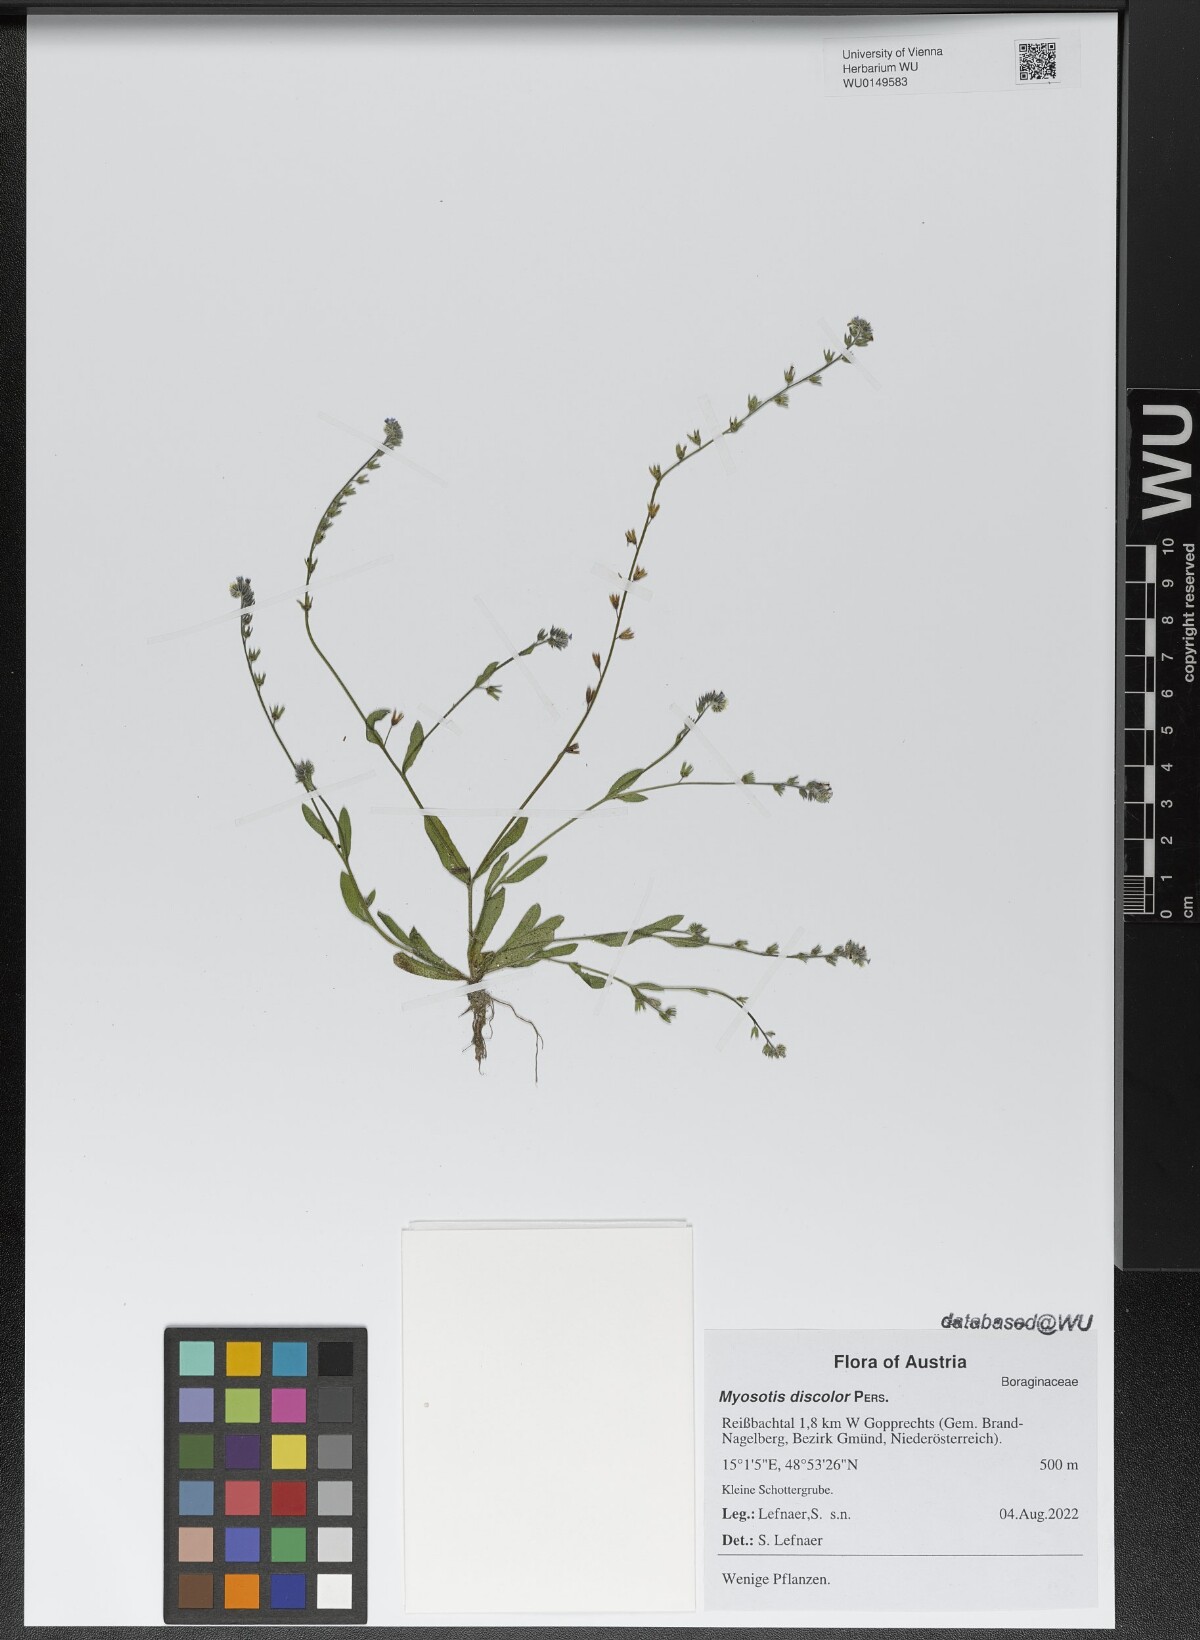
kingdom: Plantae
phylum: Tracheophyta
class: Magnoliopsida
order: Boraginales
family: Boraginaceae
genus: Myosotis
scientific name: Myosotis discolor
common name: Changing forget-me-not
